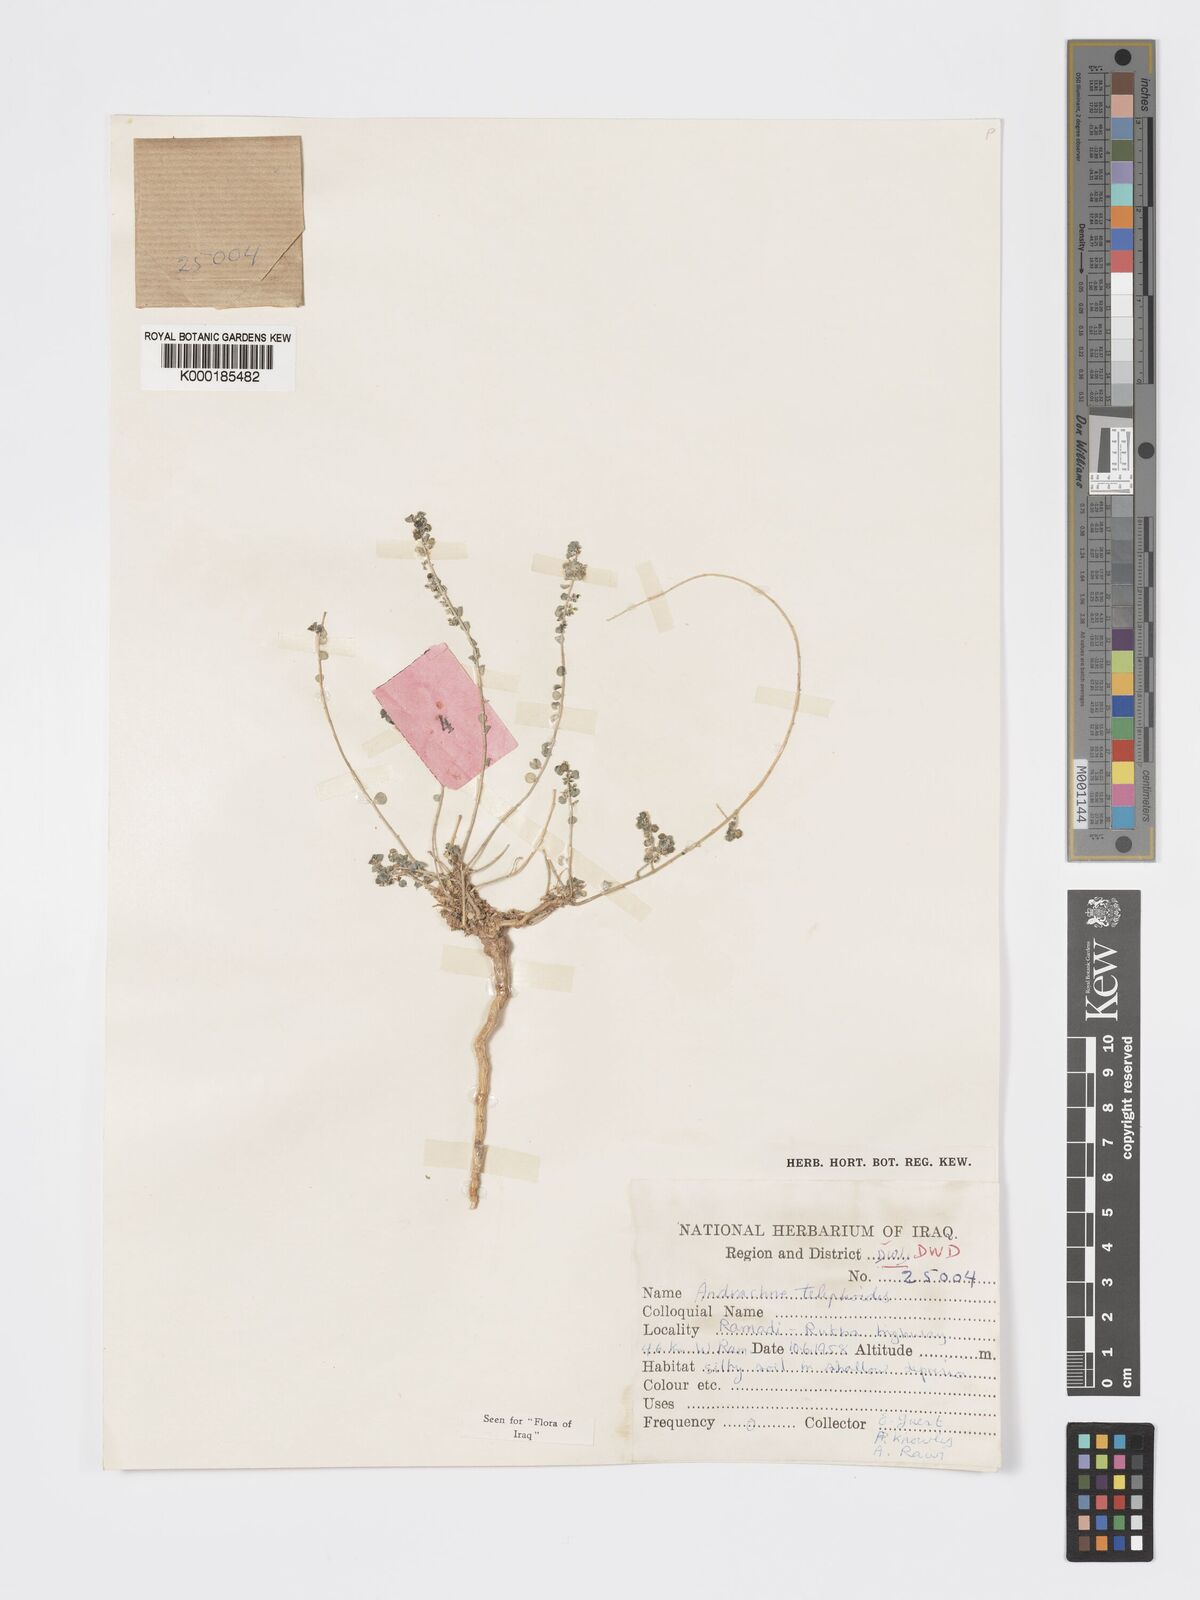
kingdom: Plantae
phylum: Tracheophyta
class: Magnoliopsida
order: Malpighiales
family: Phyllanthaceae
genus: Andrachne
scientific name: Andrachne telephioides
